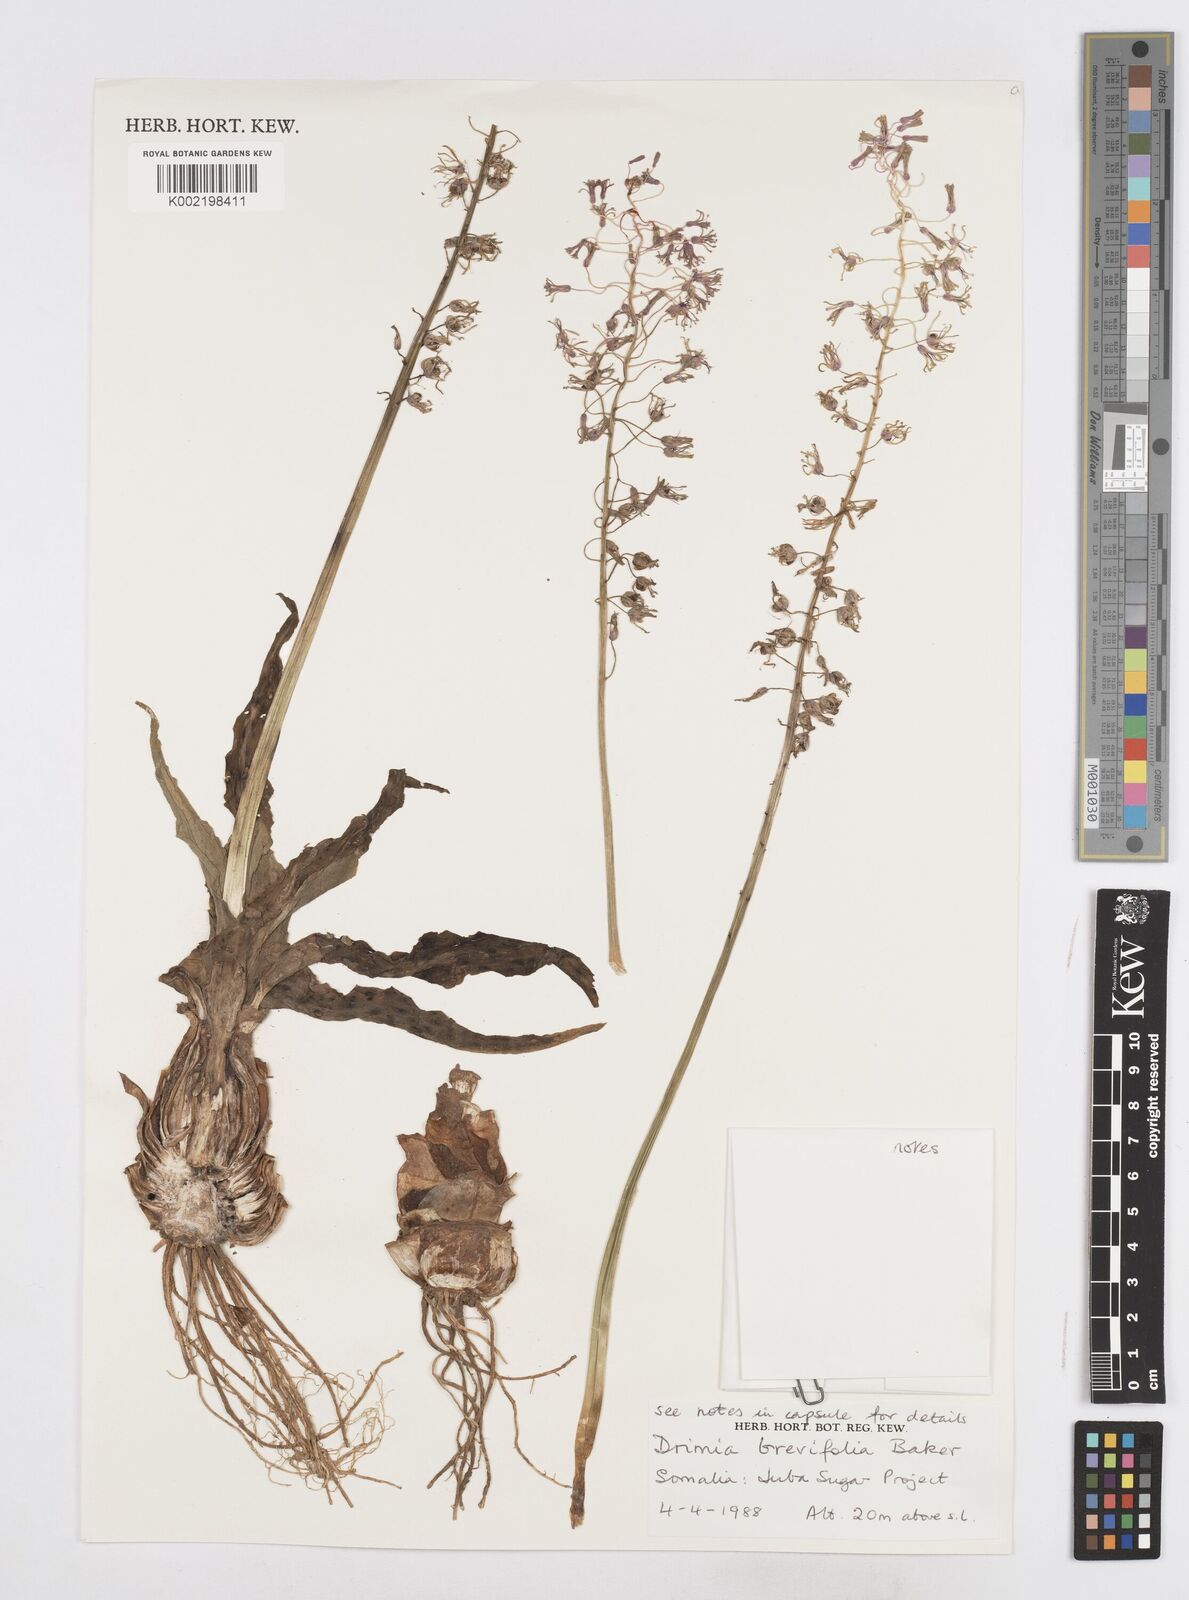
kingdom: Plantae
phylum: Tracheophyta
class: Liliopsida
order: Asparagales
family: Asparagaceae
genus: Ledebouria
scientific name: Ledebouria revoluta
